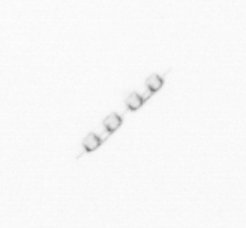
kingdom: Chromista
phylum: Ochrophyta
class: Bacillariophyceae
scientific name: Bacillariophyceae
